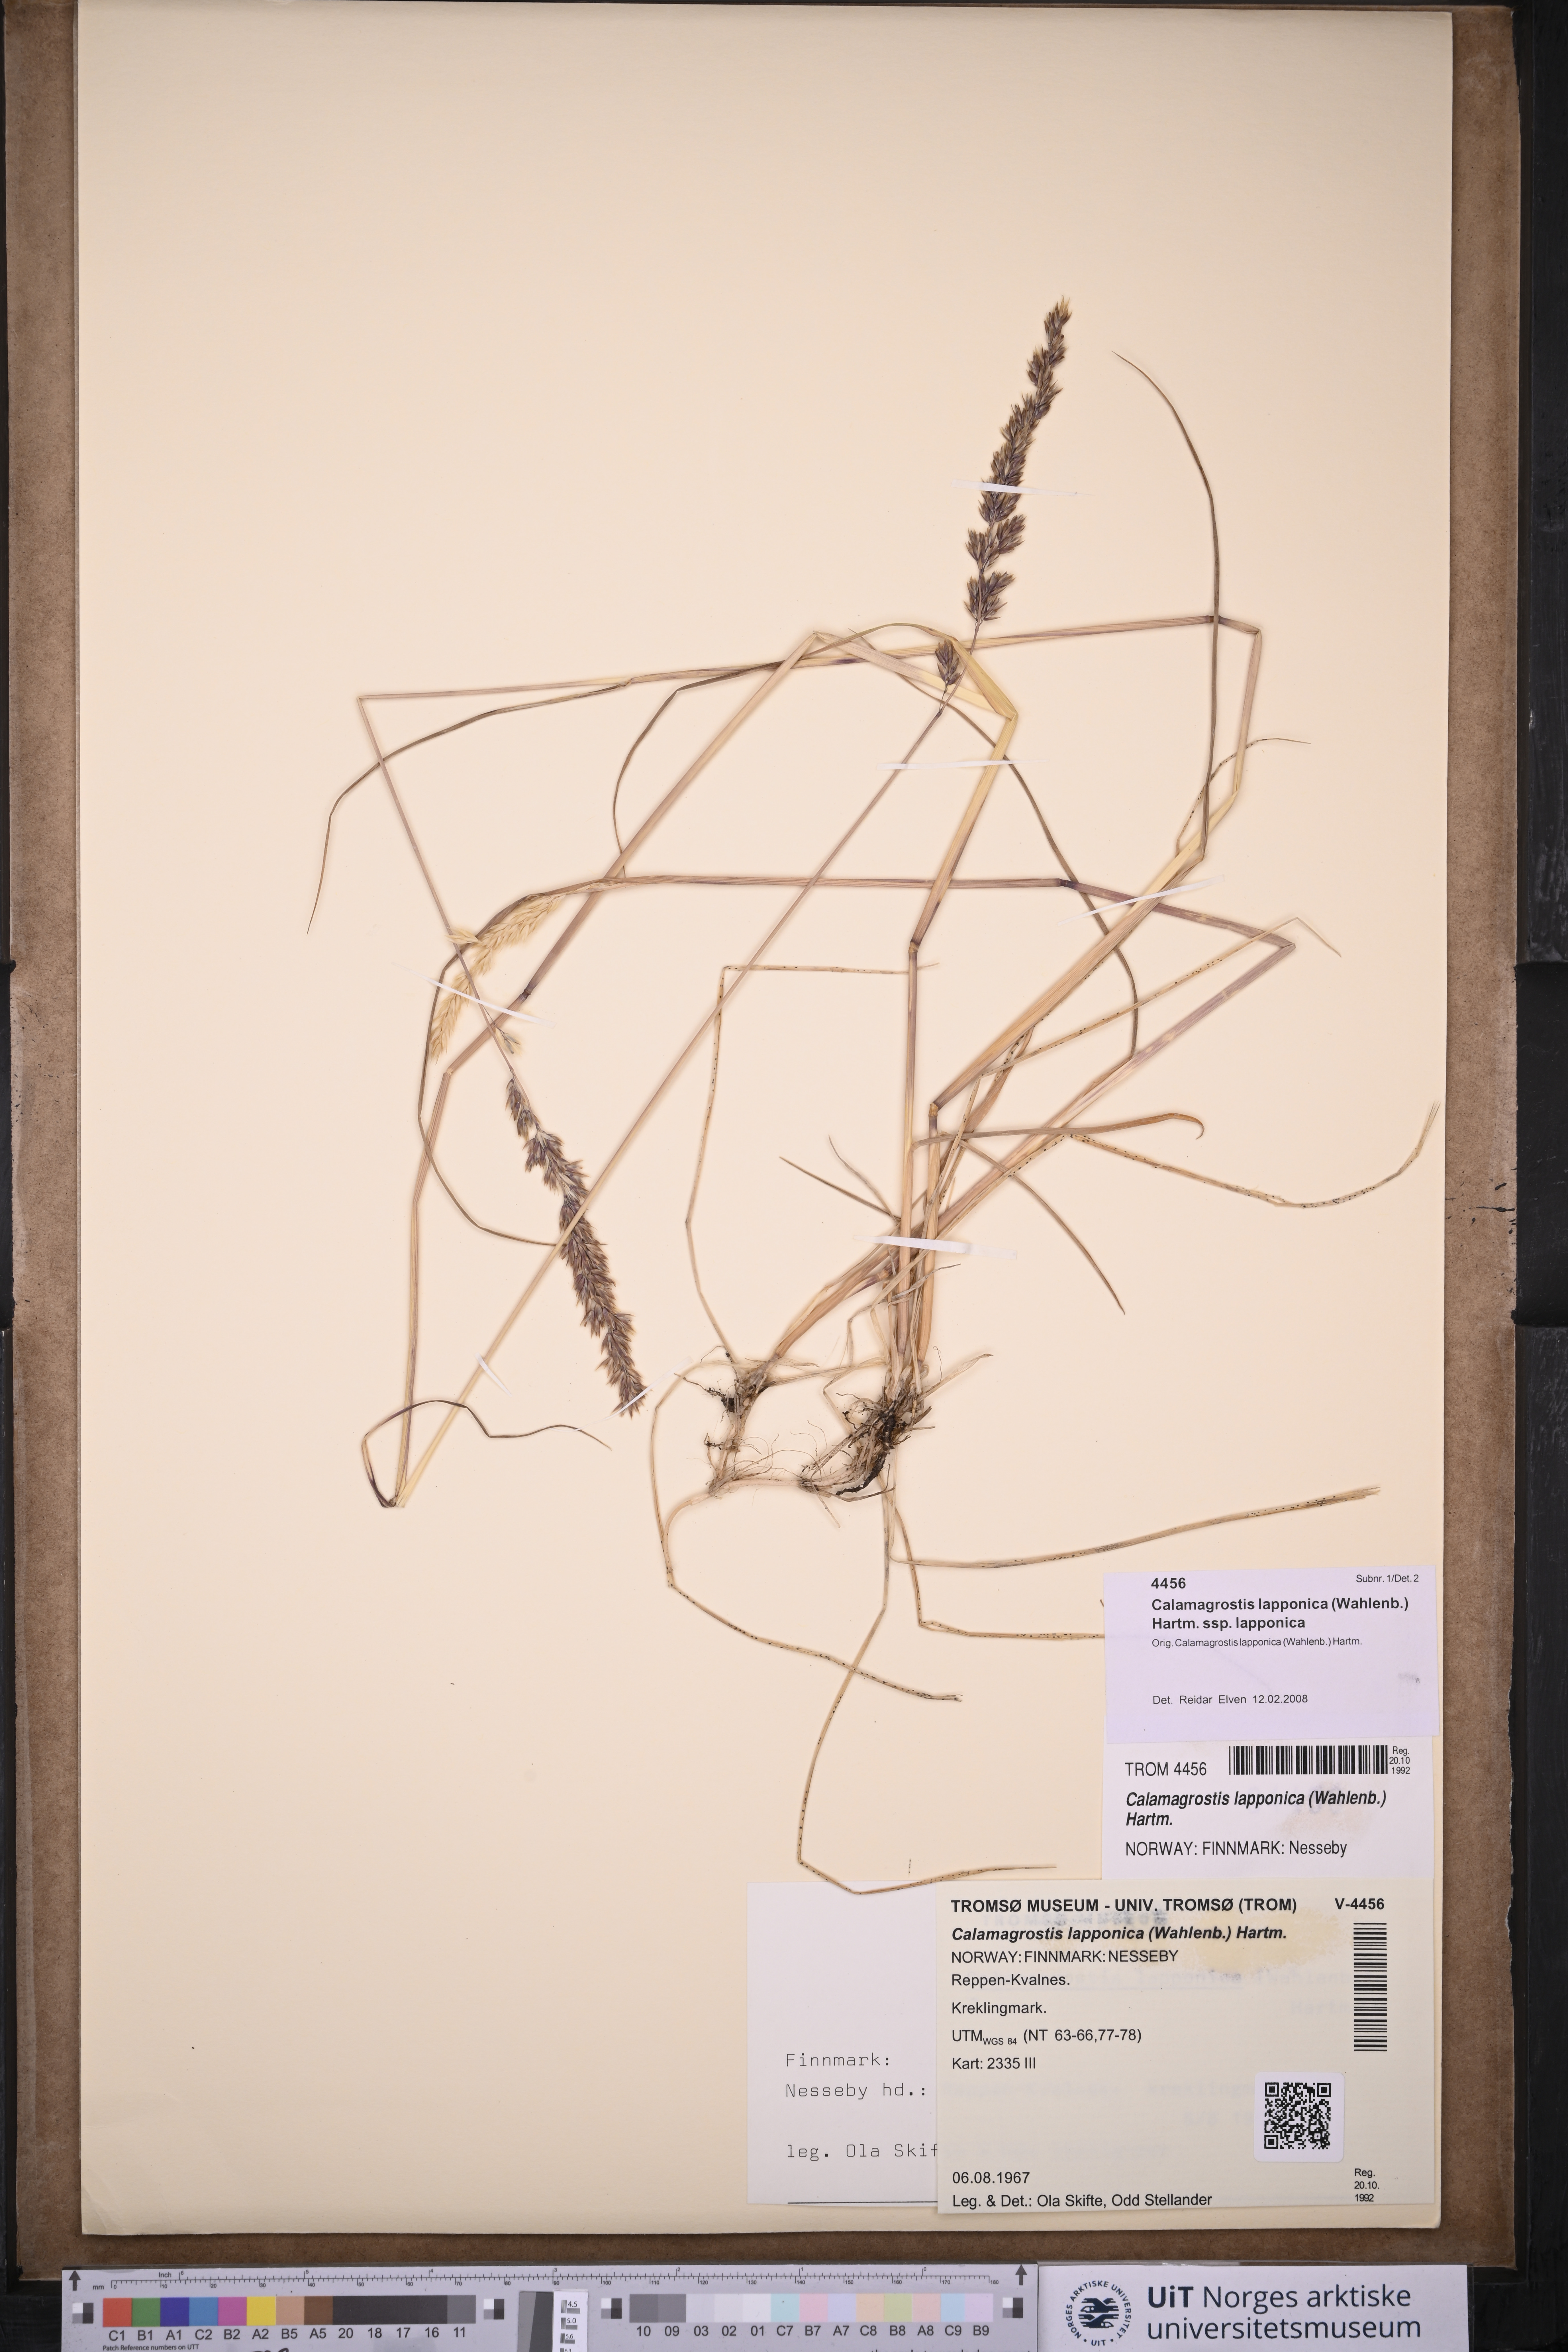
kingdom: Plantae
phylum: Tracheophyta
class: Liliopsida
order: Poales
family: Poaceae
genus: Calamagrostis
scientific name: Calamagrostis lapponica
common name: Lapland reedgrass
